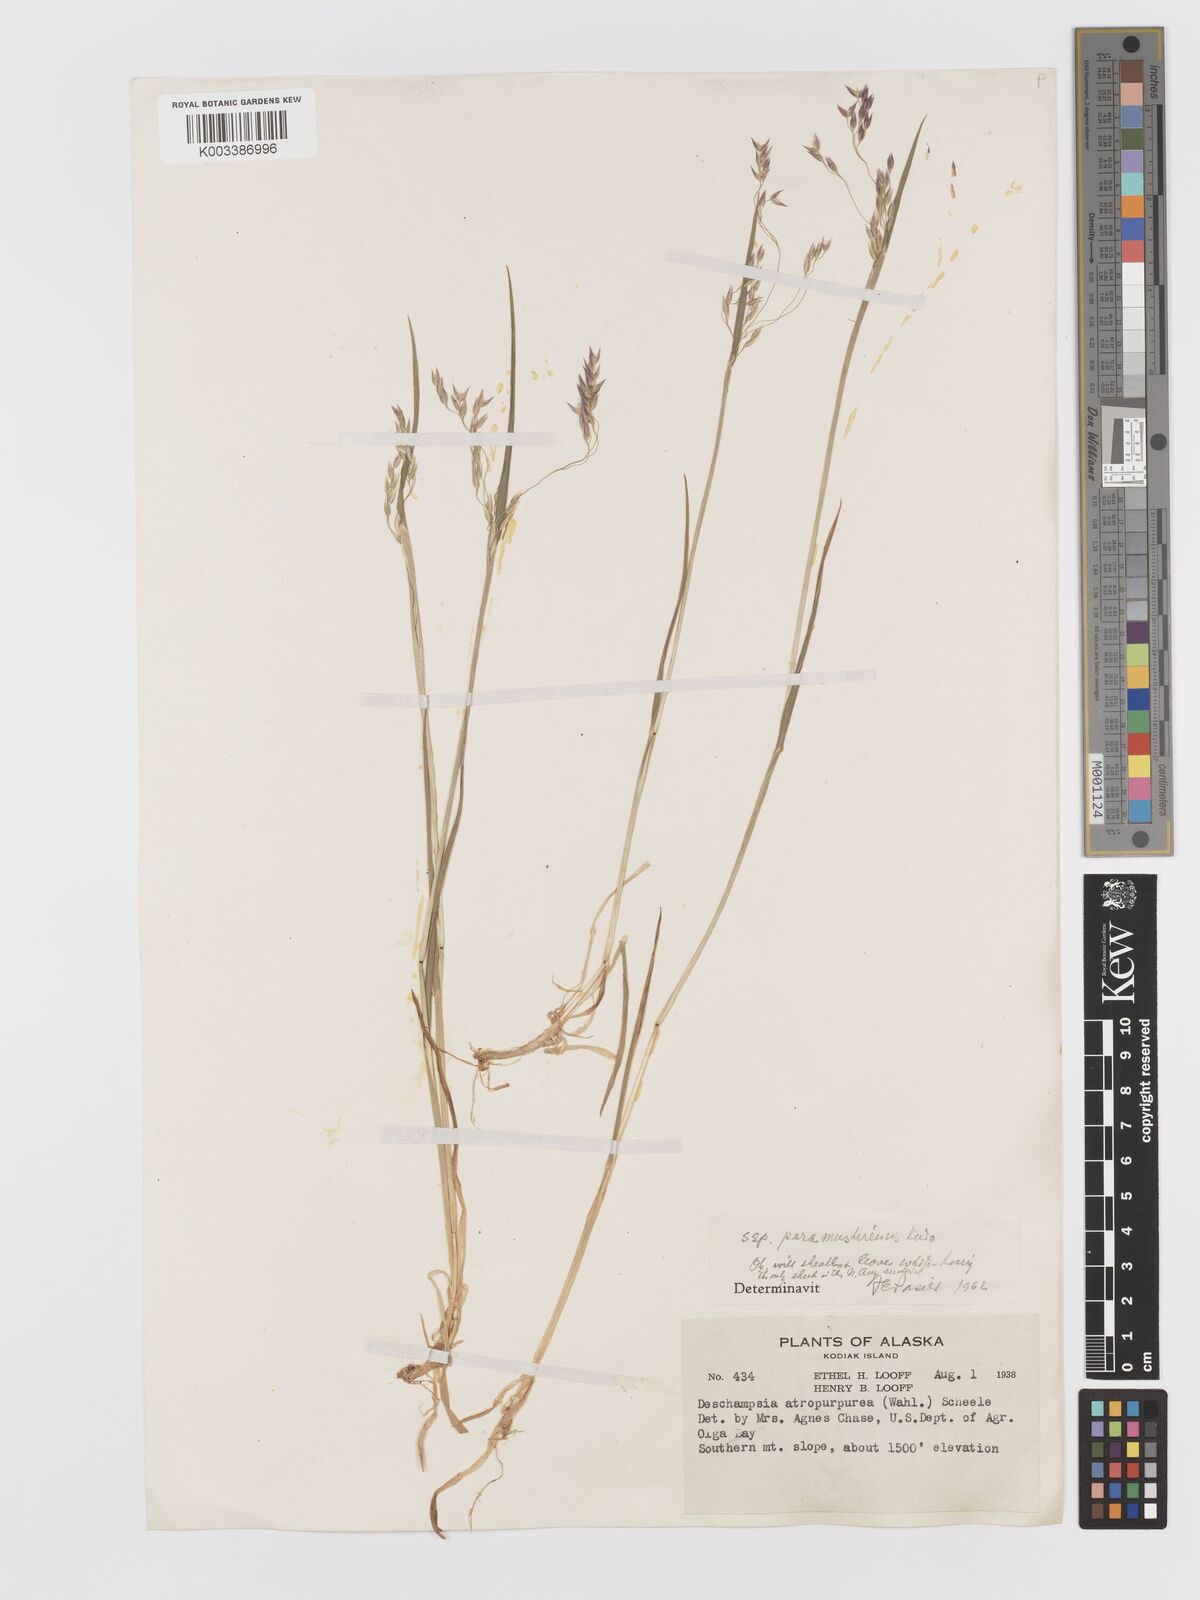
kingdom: Plantae
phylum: Tracheophyta
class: Liliopsida
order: Poales
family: Poaceae
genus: Vahlodea
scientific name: Vahlodea atropurpurea
